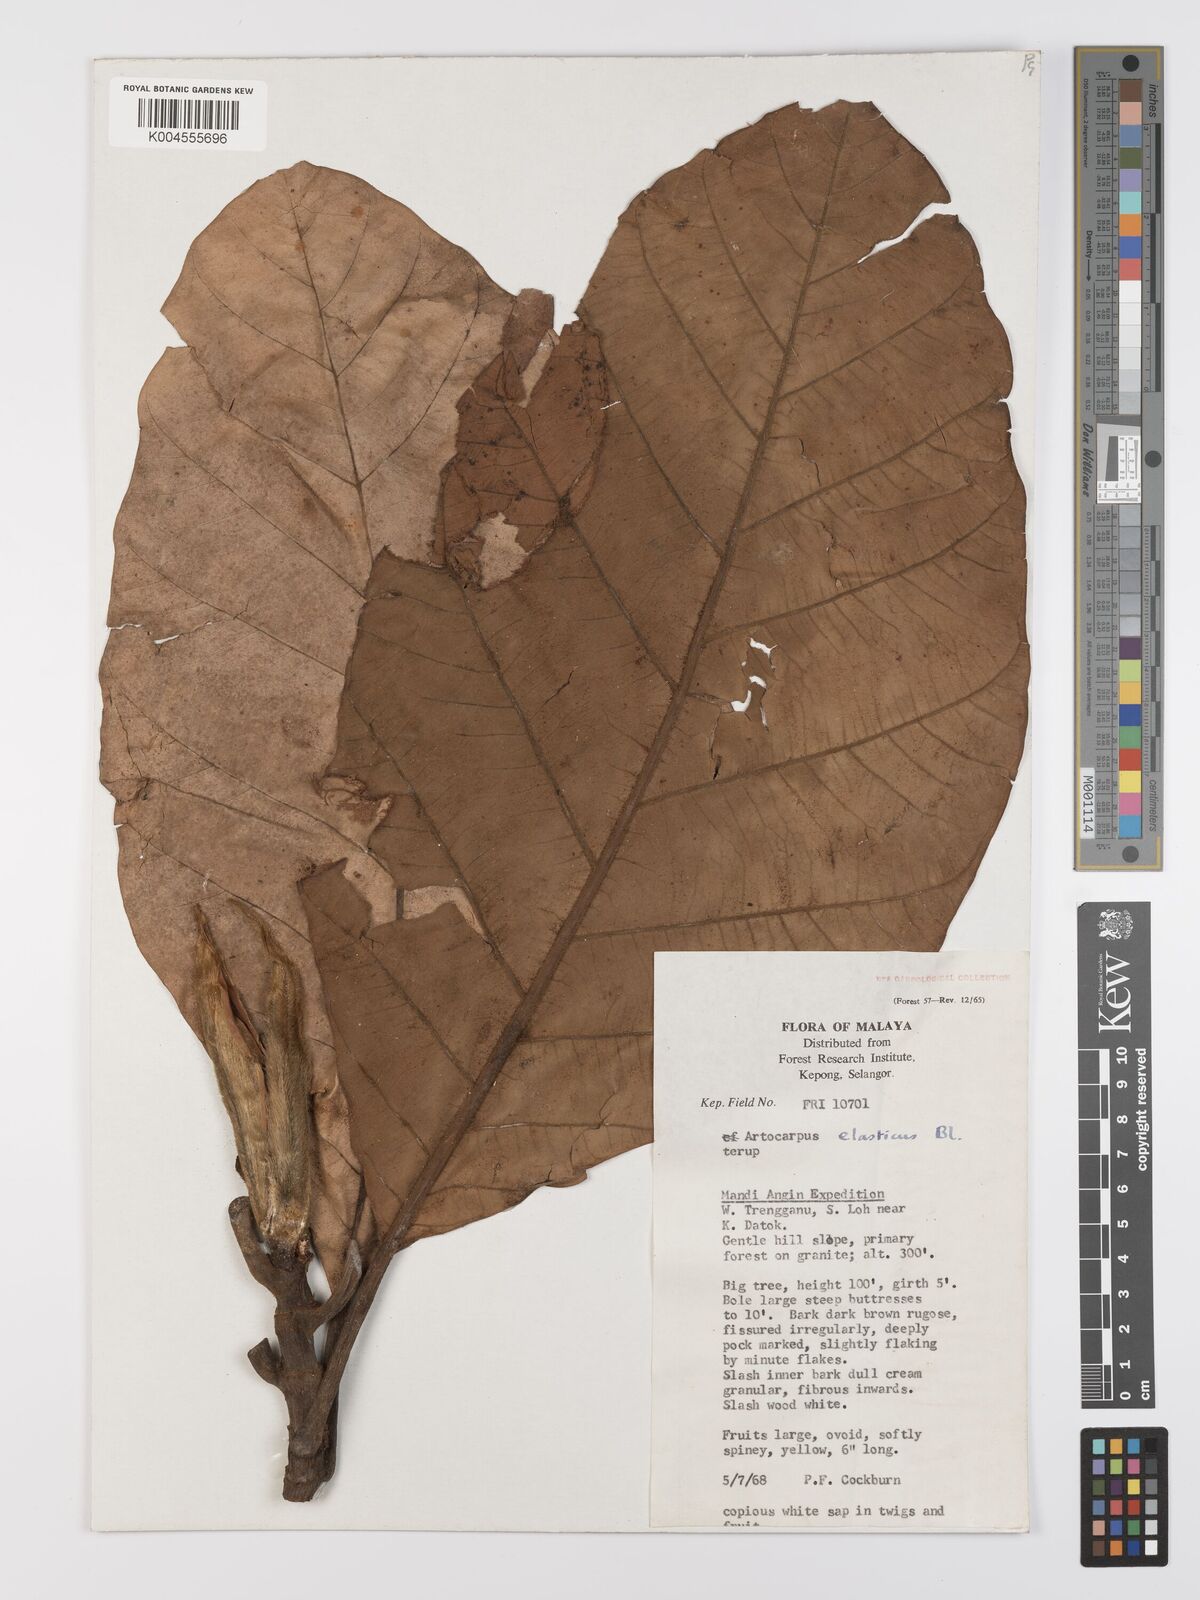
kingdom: Plantae
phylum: Tracheophyta
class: Magnoliopsida
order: Rosales
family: Moraceae
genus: Artocarpus
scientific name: Artocarpus elasticus
